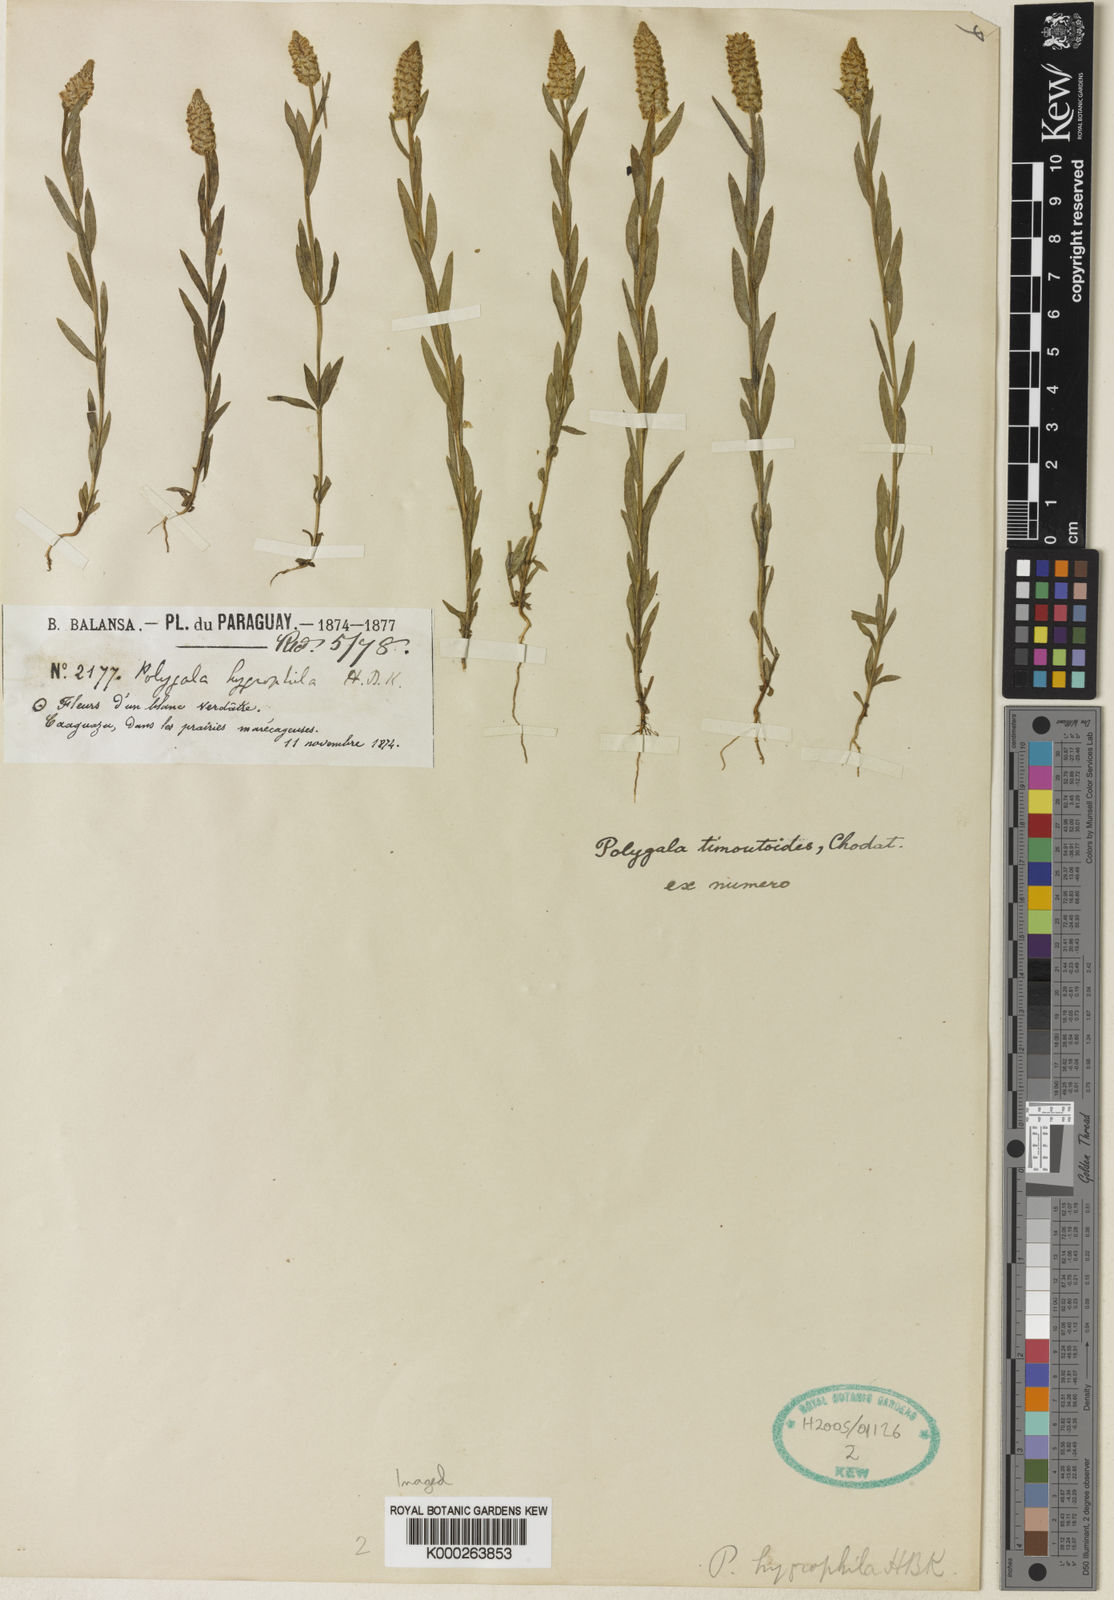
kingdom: Plantae
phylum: Tracheophyta
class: Magnoliopsida
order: Fabales
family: Polygalaceae
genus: Polygala
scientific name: Polygala timoutoides
